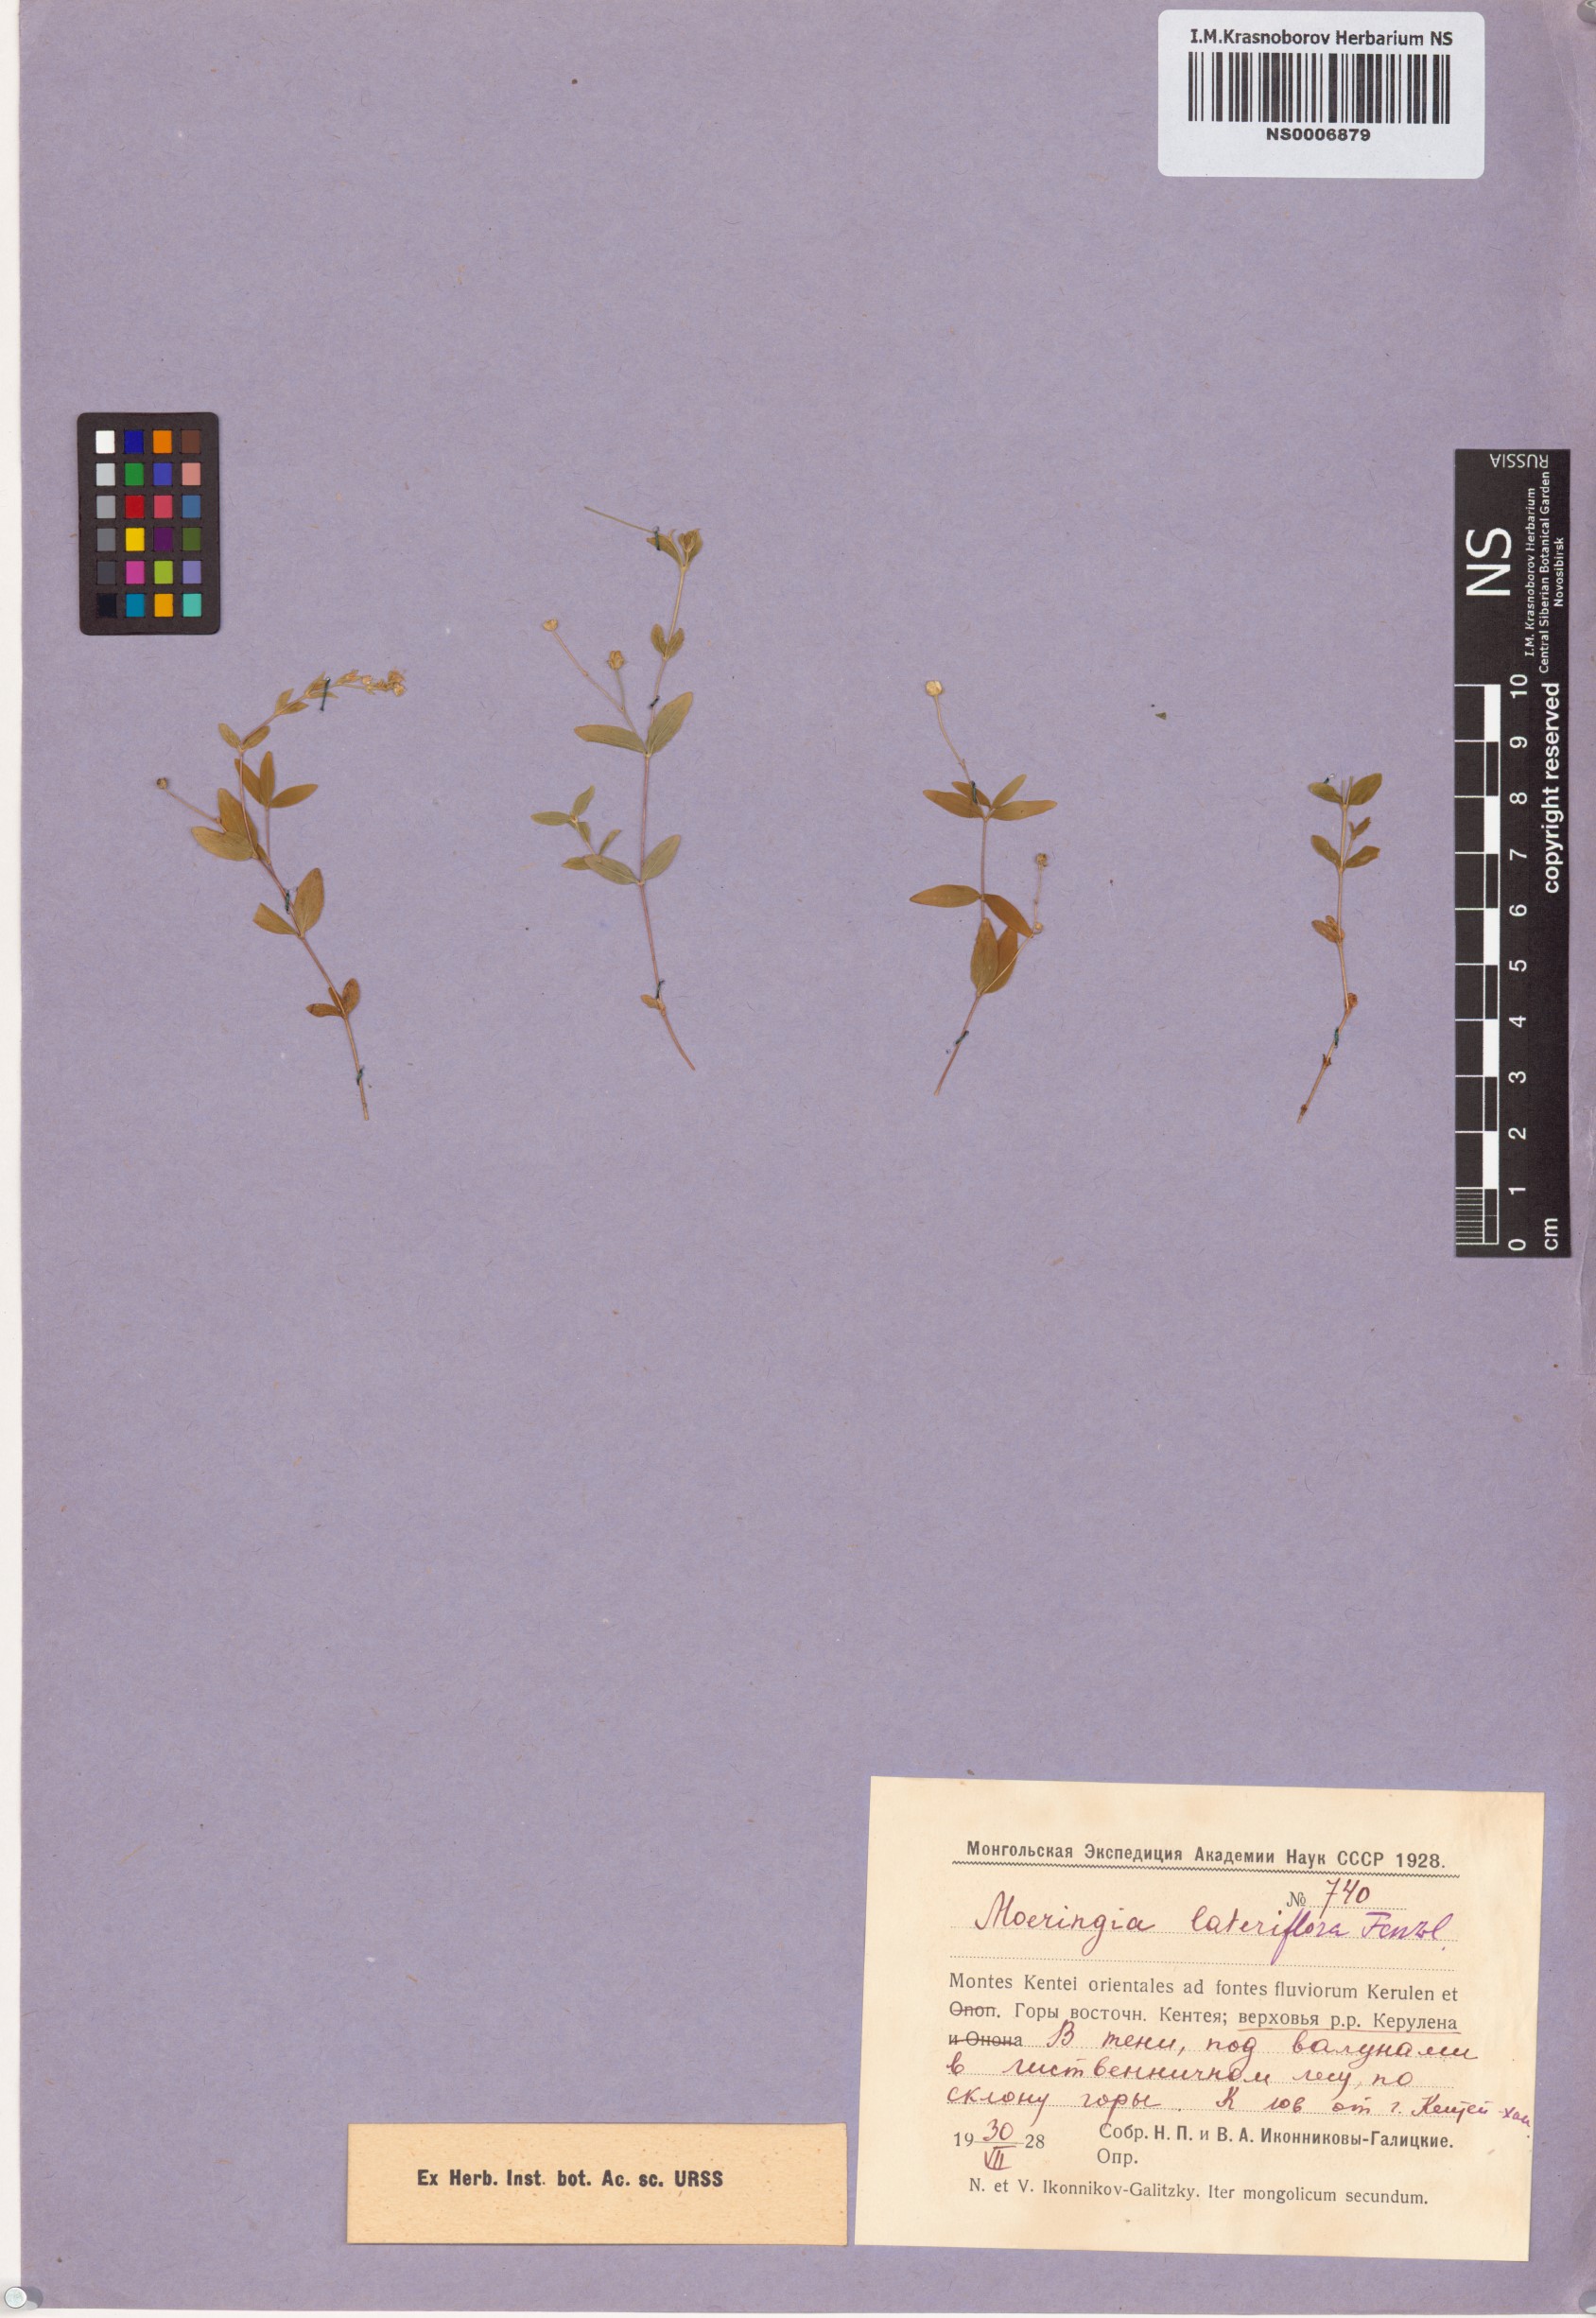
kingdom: Plantae
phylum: Tracheophyta
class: Magnoliopsida
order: Caryophyllales
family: Caryophyllaceae
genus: Moehringia
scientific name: Moehringia lateriflora
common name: Blunt-leaved sandwort
